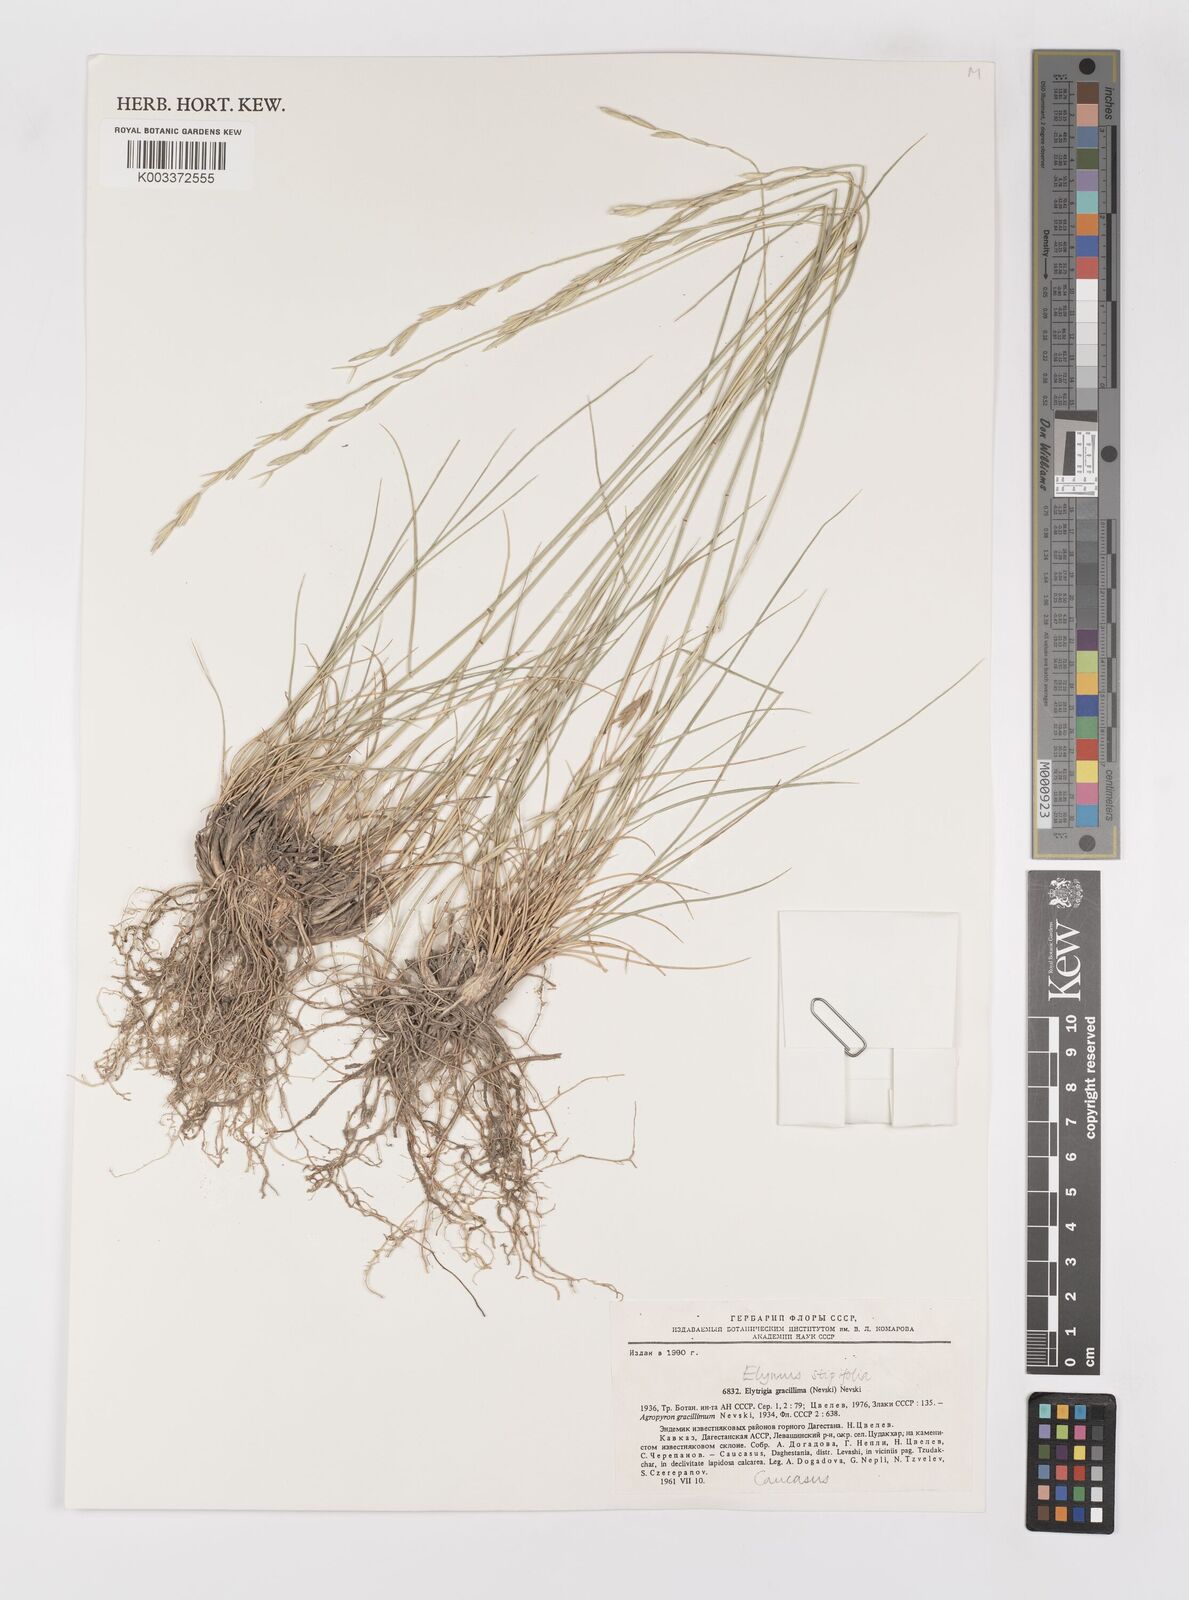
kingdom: Plantae
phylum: Tracheophyta
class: Liliopsida
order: Poales
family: Poaceae
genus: Pseudoroegneria
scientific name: Pseudoroegneria stipifolia
